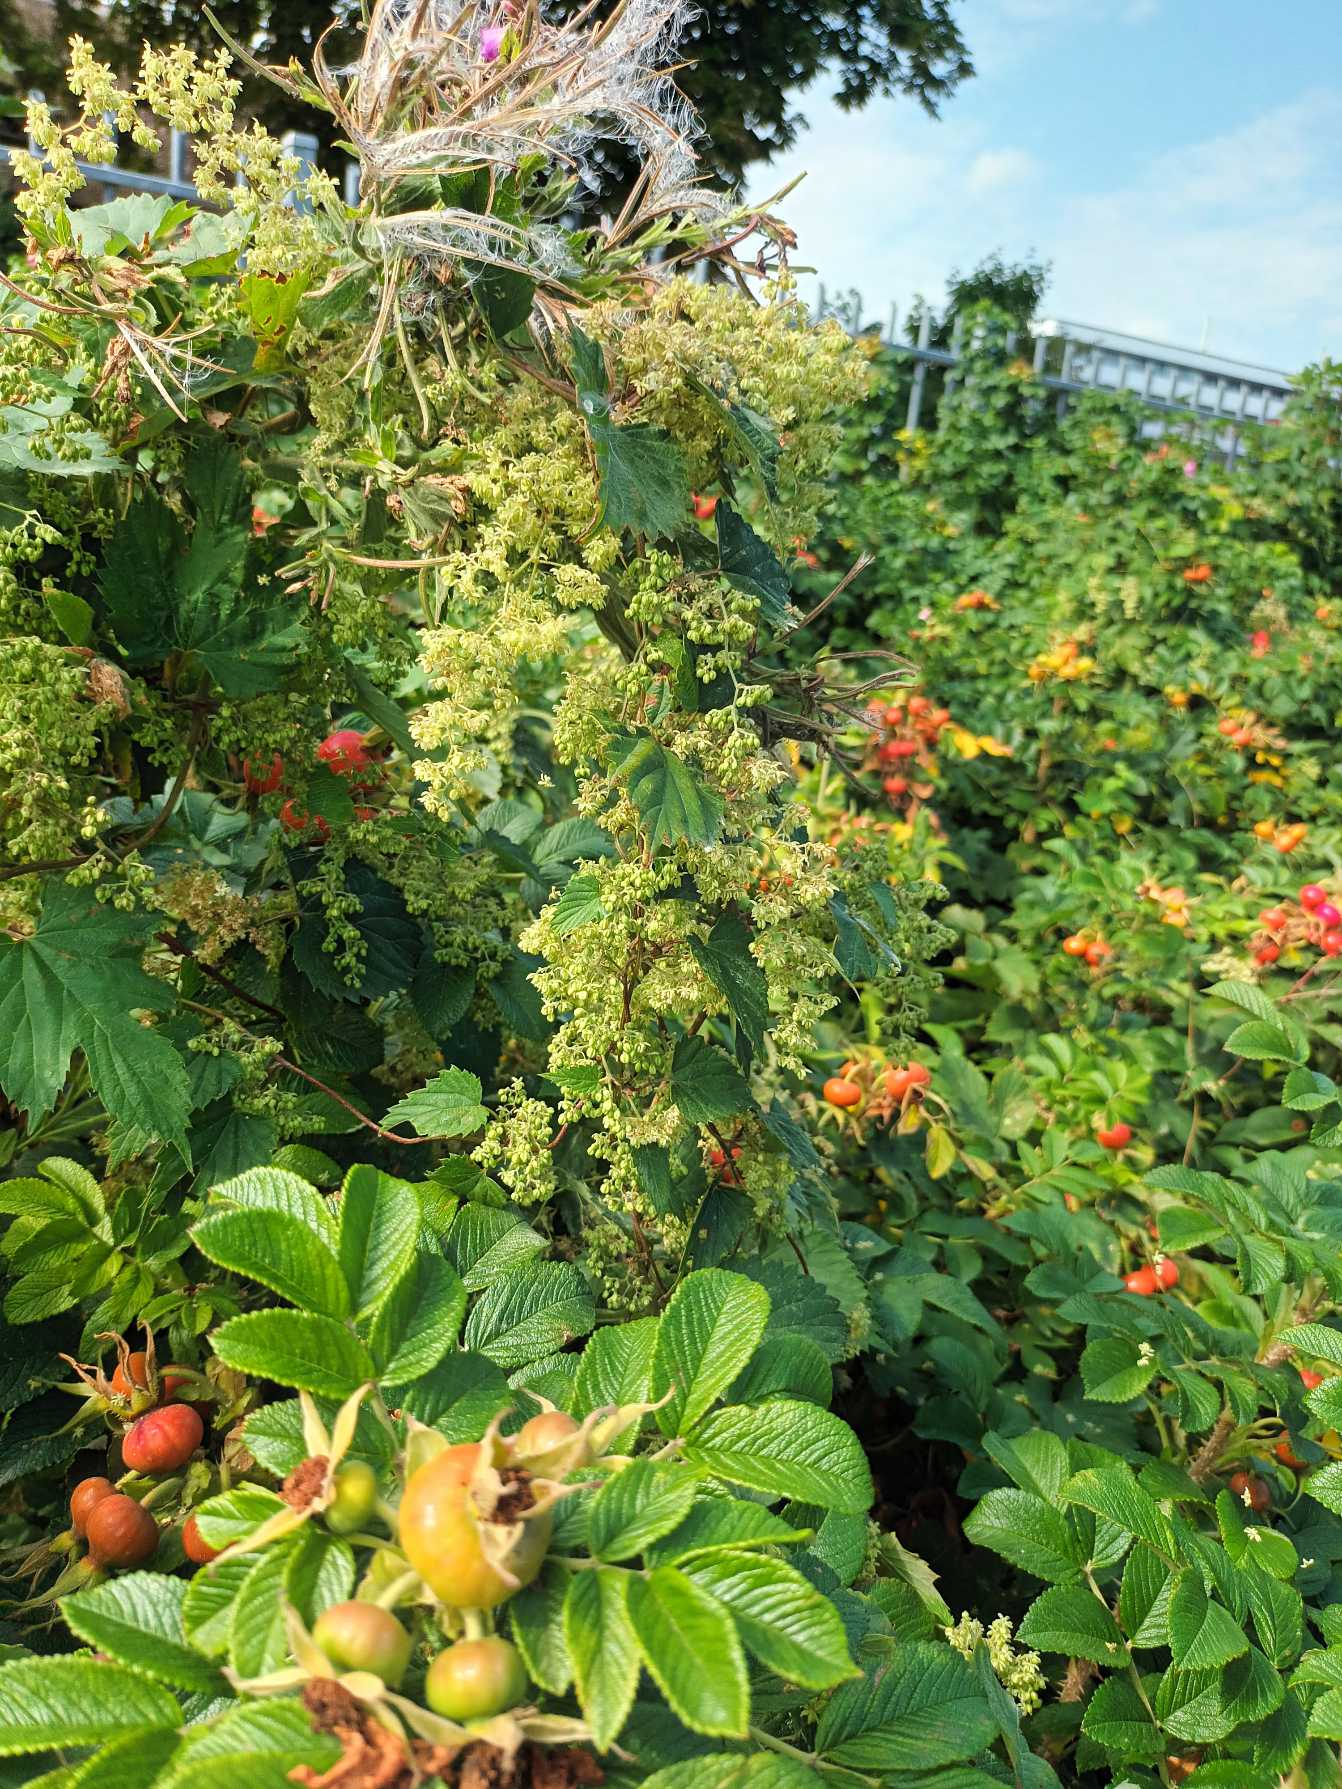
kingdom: Plantae
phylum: Tracheophyta
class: Magnoliopsida
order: Rosales
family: Cannabaceae
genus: Humulus
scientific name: Humulus lupulus
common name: Humle
